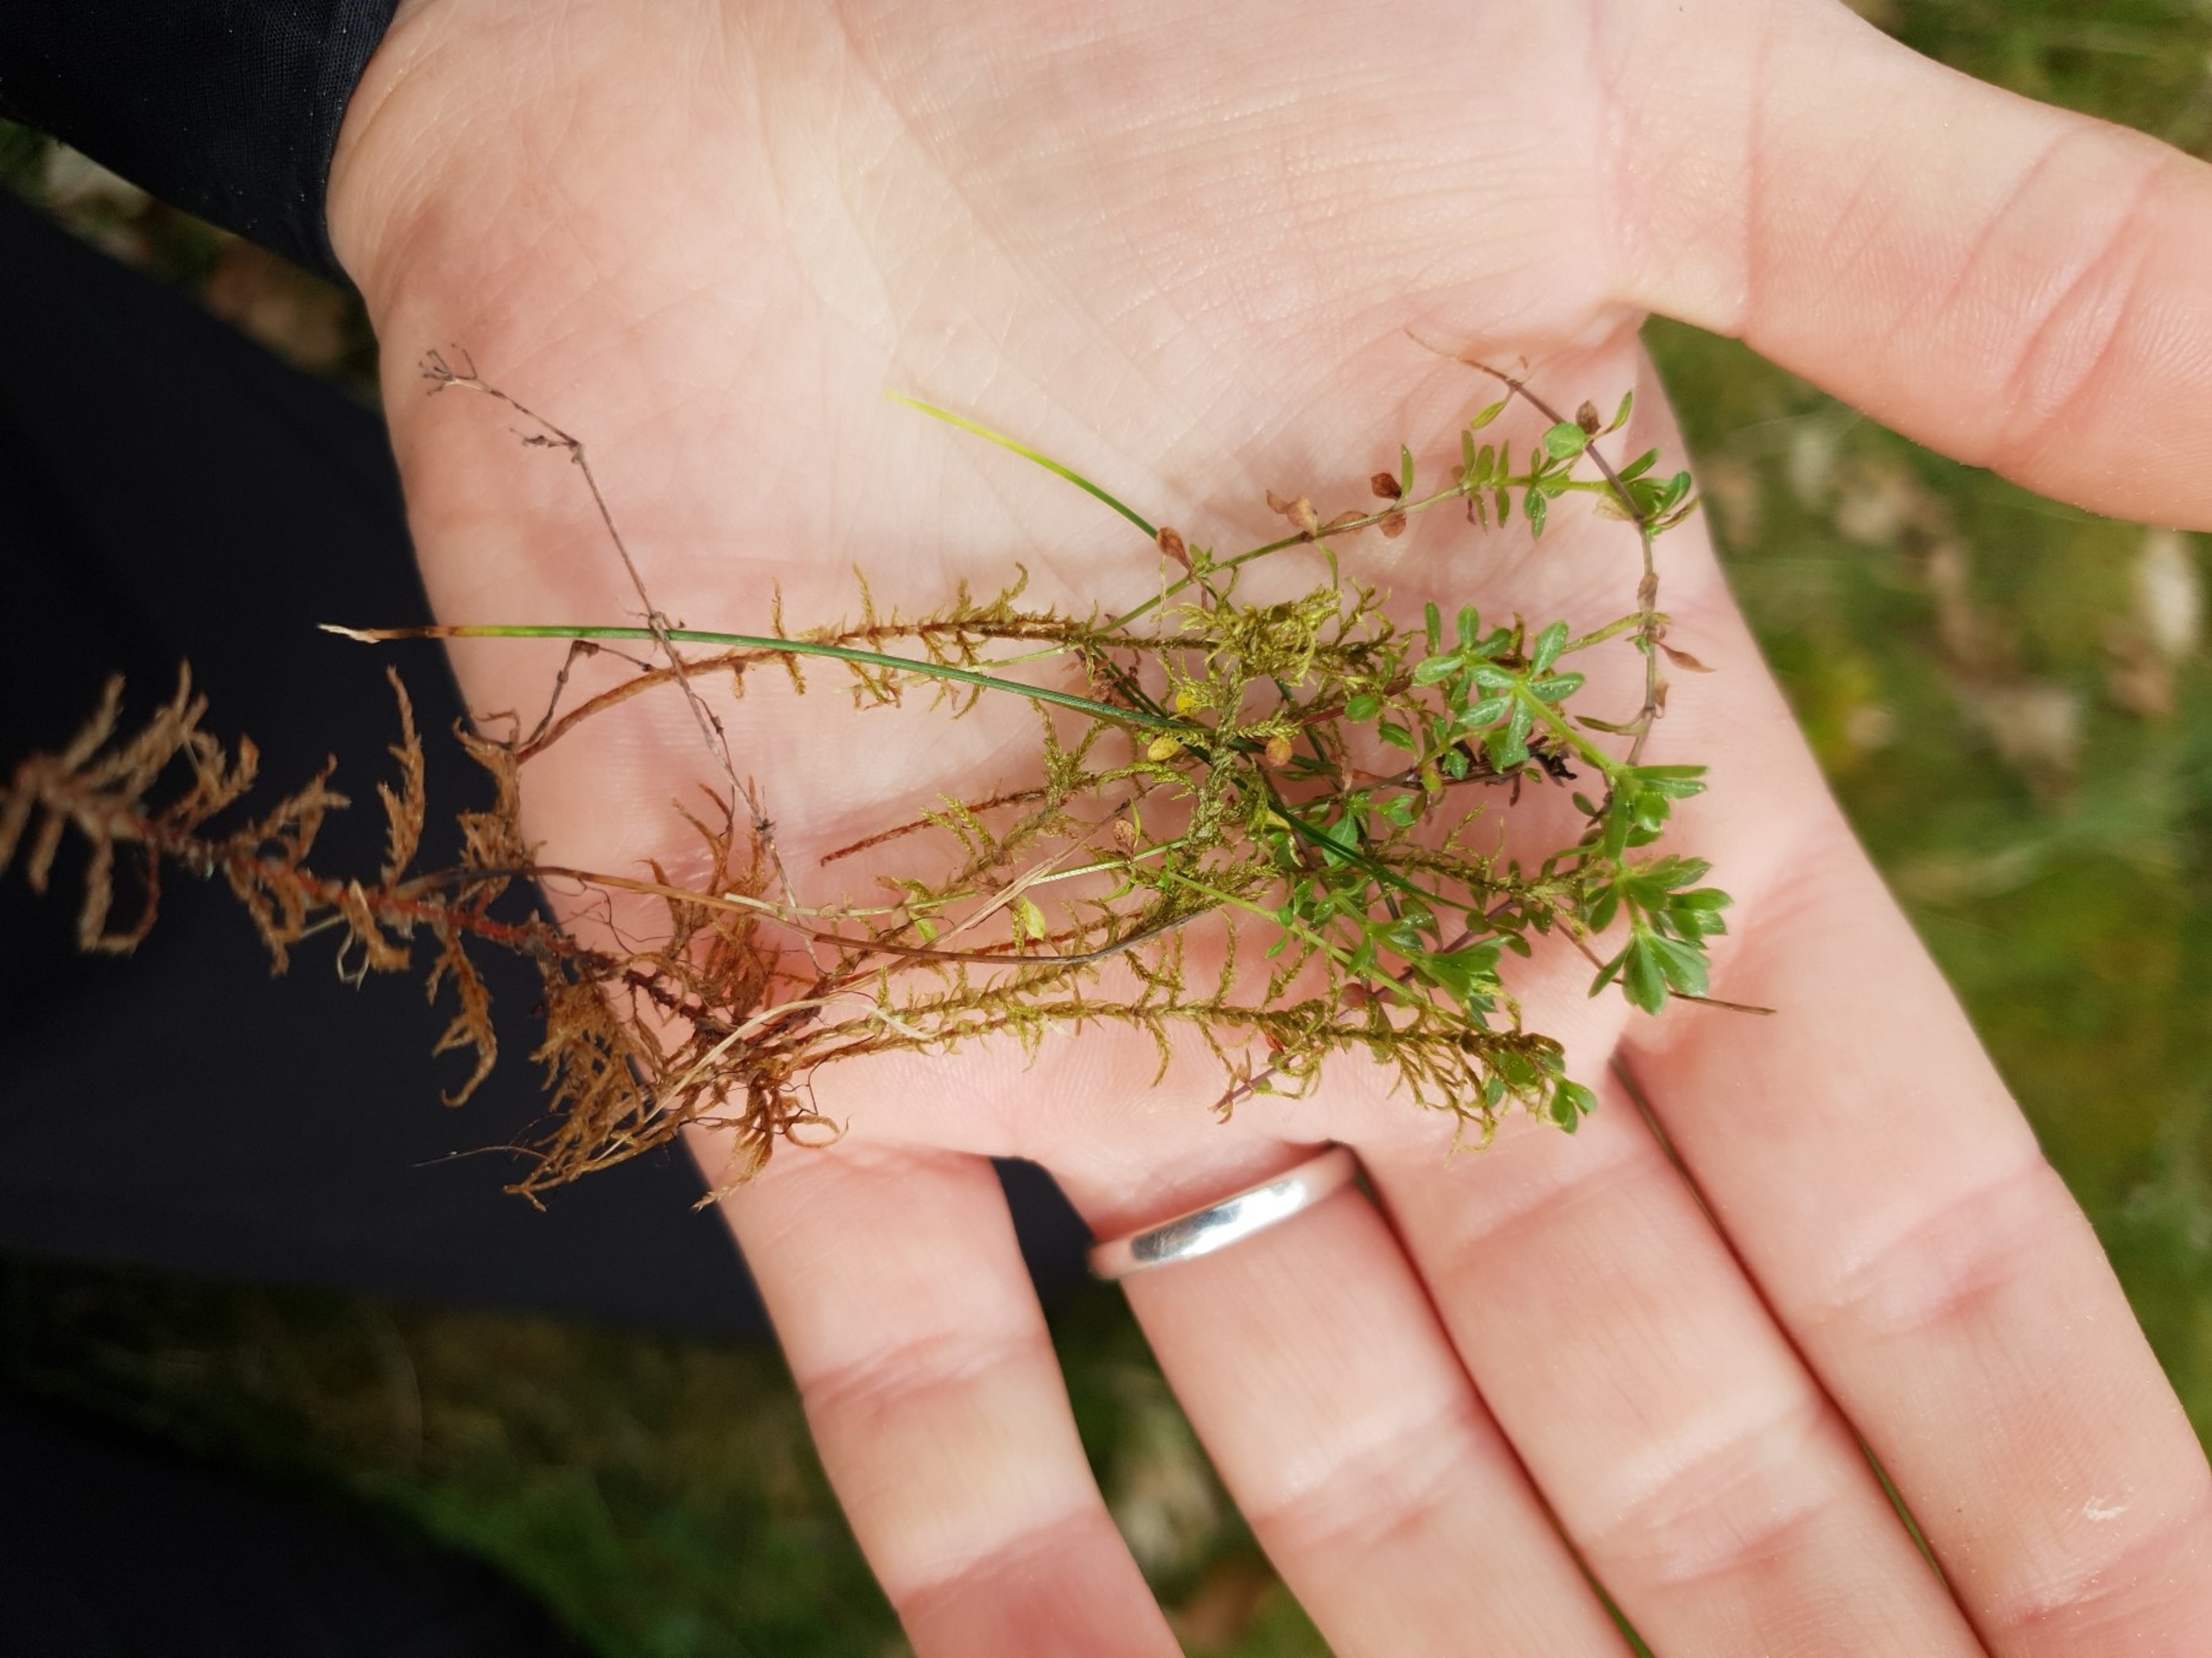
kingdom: Plantae
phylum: Tracheophyta
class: Magnoliopsida
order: Gentianales
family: Rubiaceae
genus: Galium
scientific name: Galium saxatile
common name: Lyng-snerre
